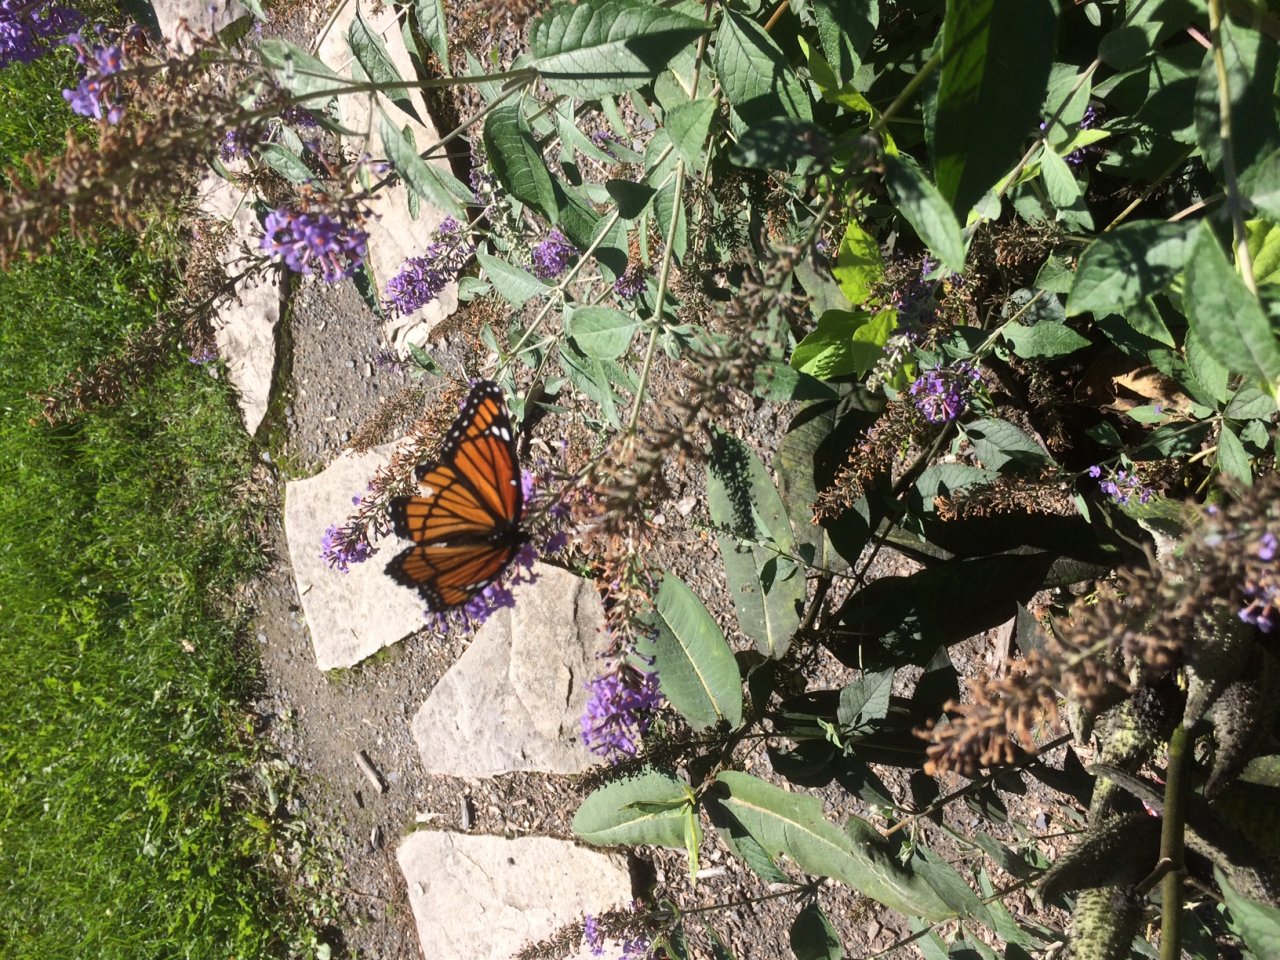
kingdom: Animalia
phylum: Arthropoda
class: Insecta
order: Lepidoptera
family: Nymphalidae
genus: Limenitis
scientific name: Limenitis archippus
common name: Viceroy
